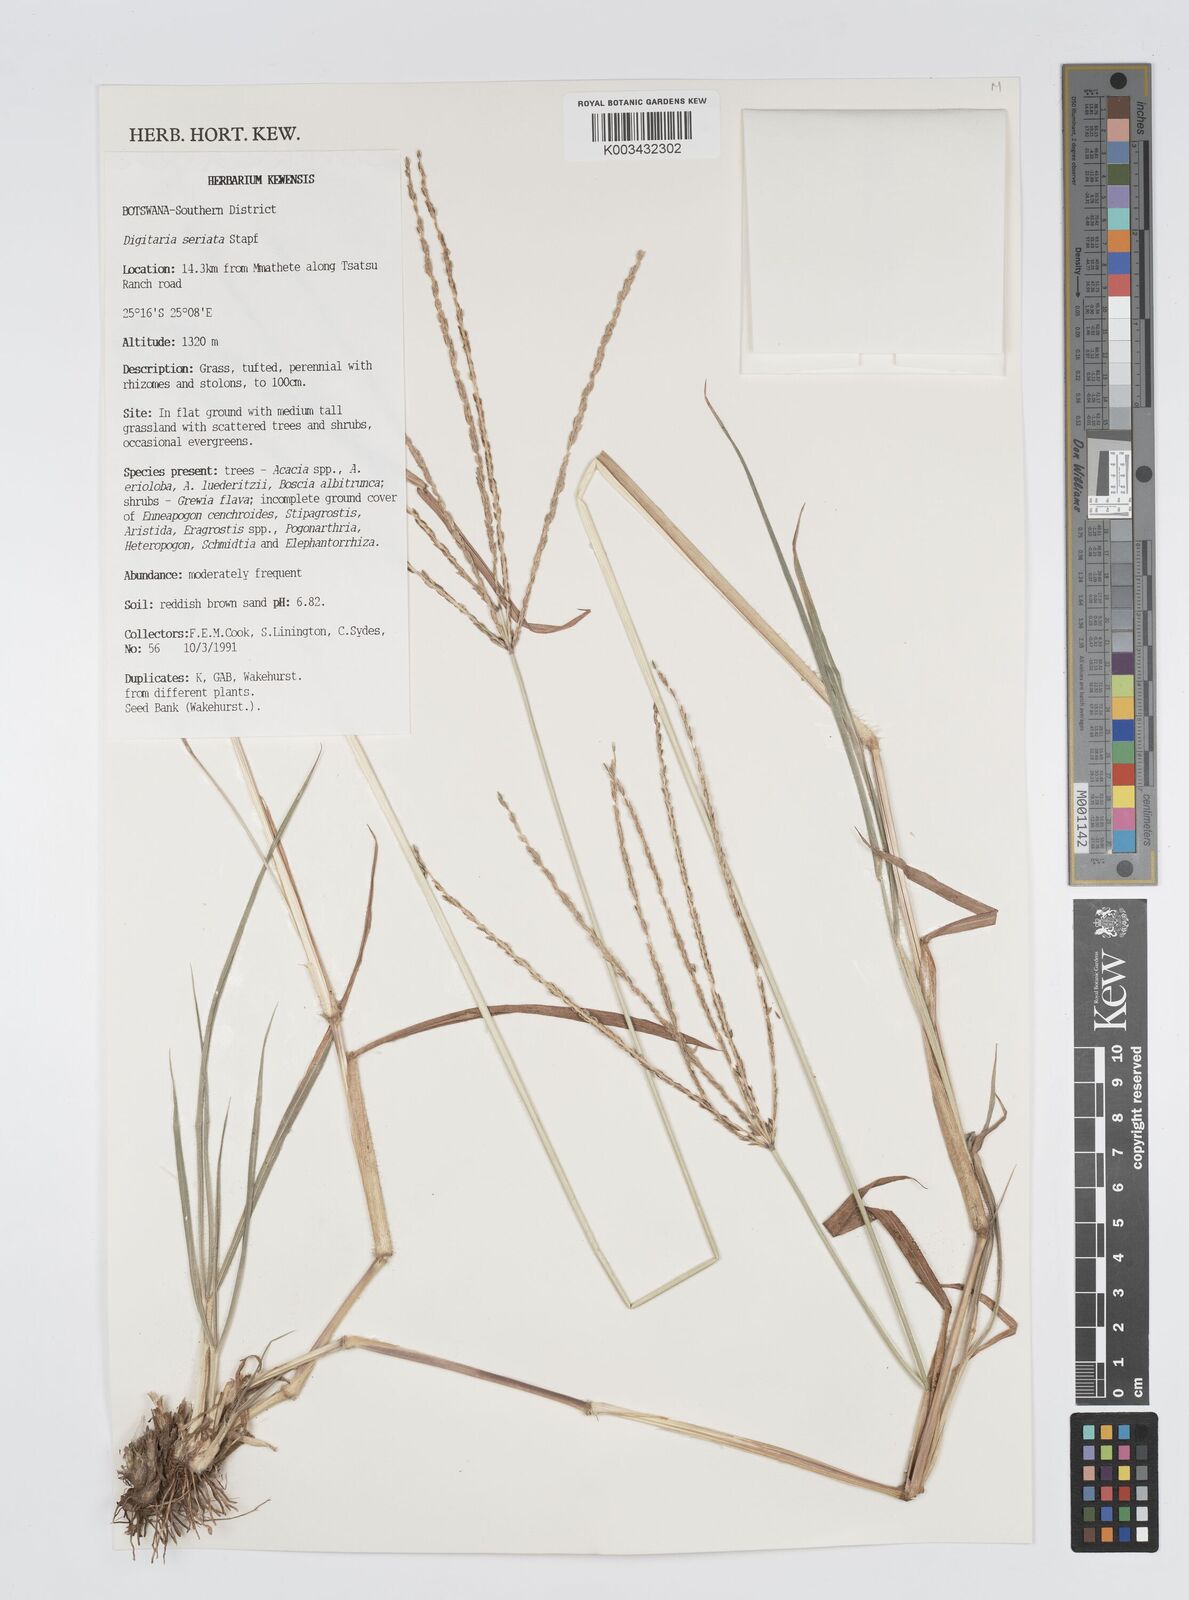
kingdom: Plantae
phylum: Tracheophyta
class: Liliopsida
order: Poales
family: Poaceae
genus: Digitaria
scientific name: Digitaria seriata
